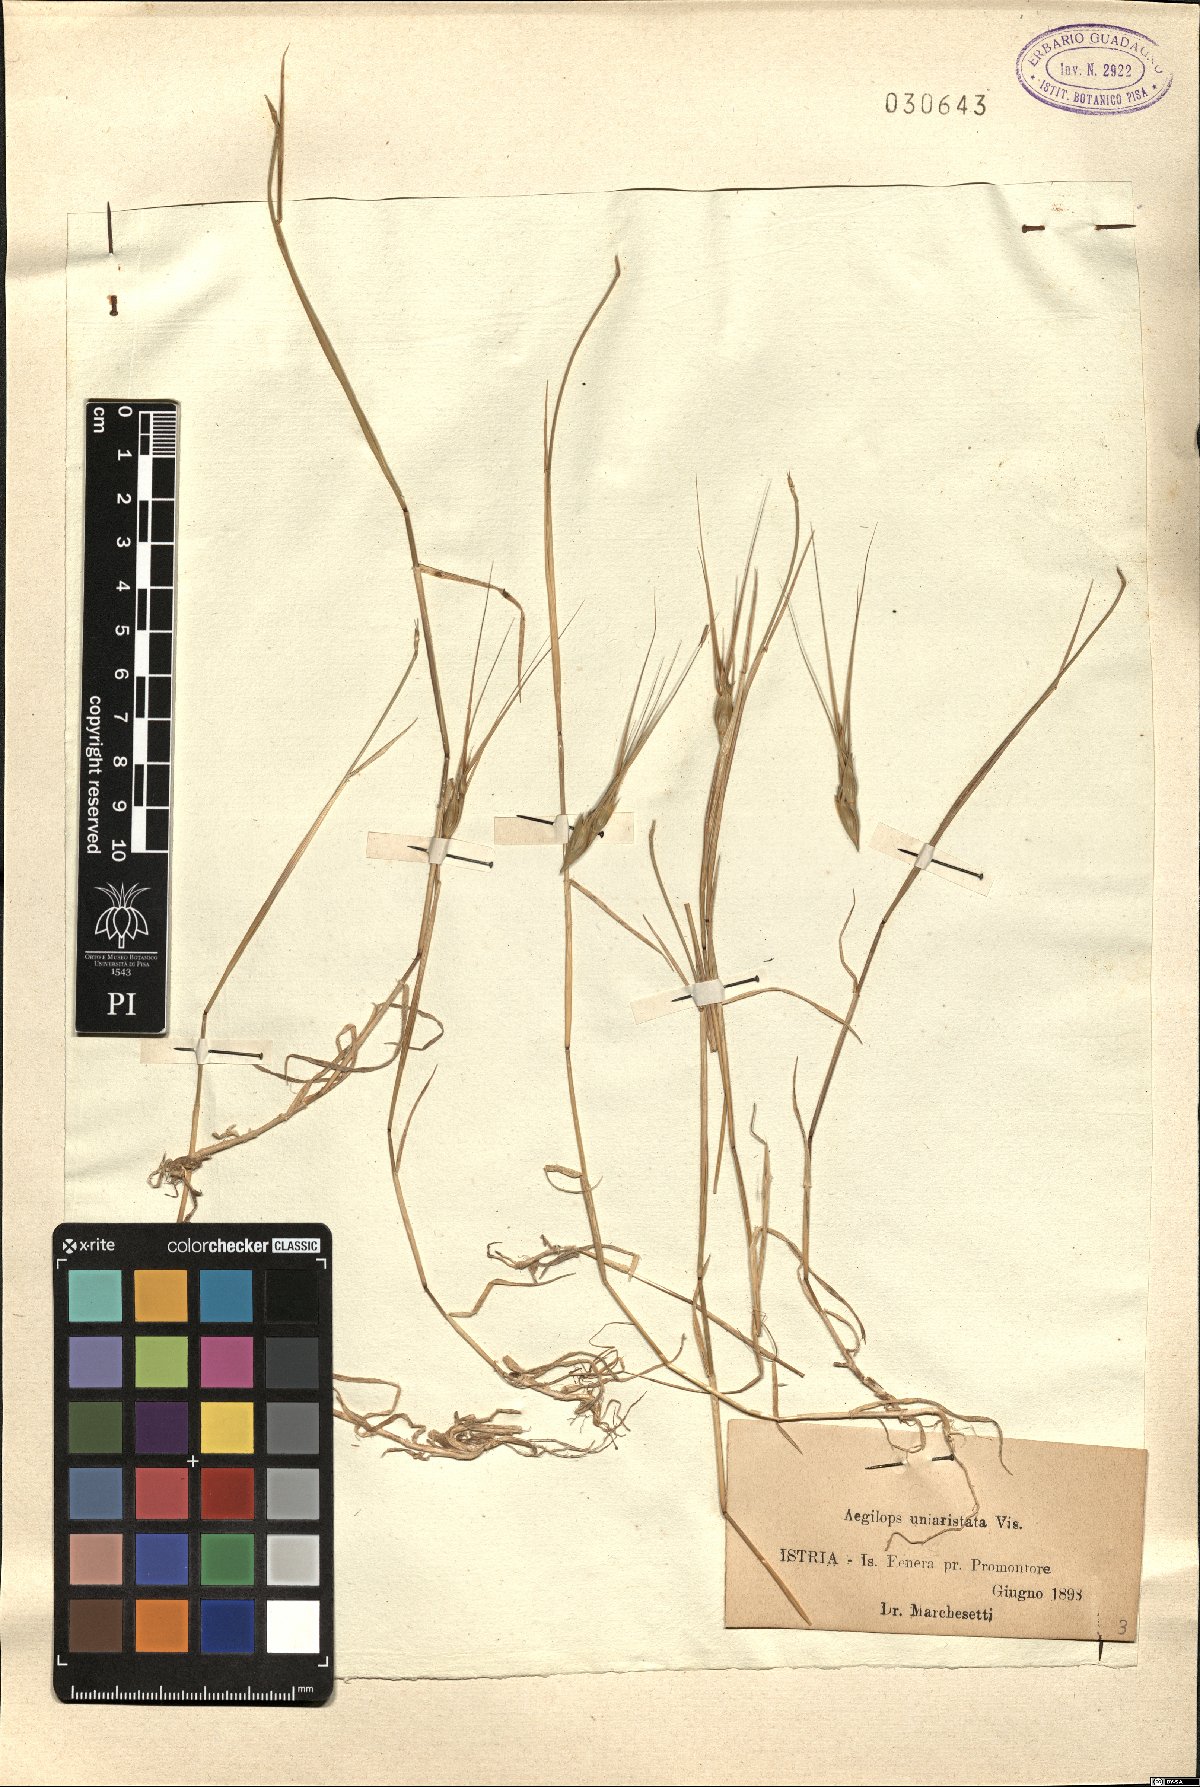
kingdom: Plantae
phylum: Tracheophyta
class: Liliopsida
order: Poales
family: Poaceae
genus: Aegilops
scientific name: Aegilops uniaristata
